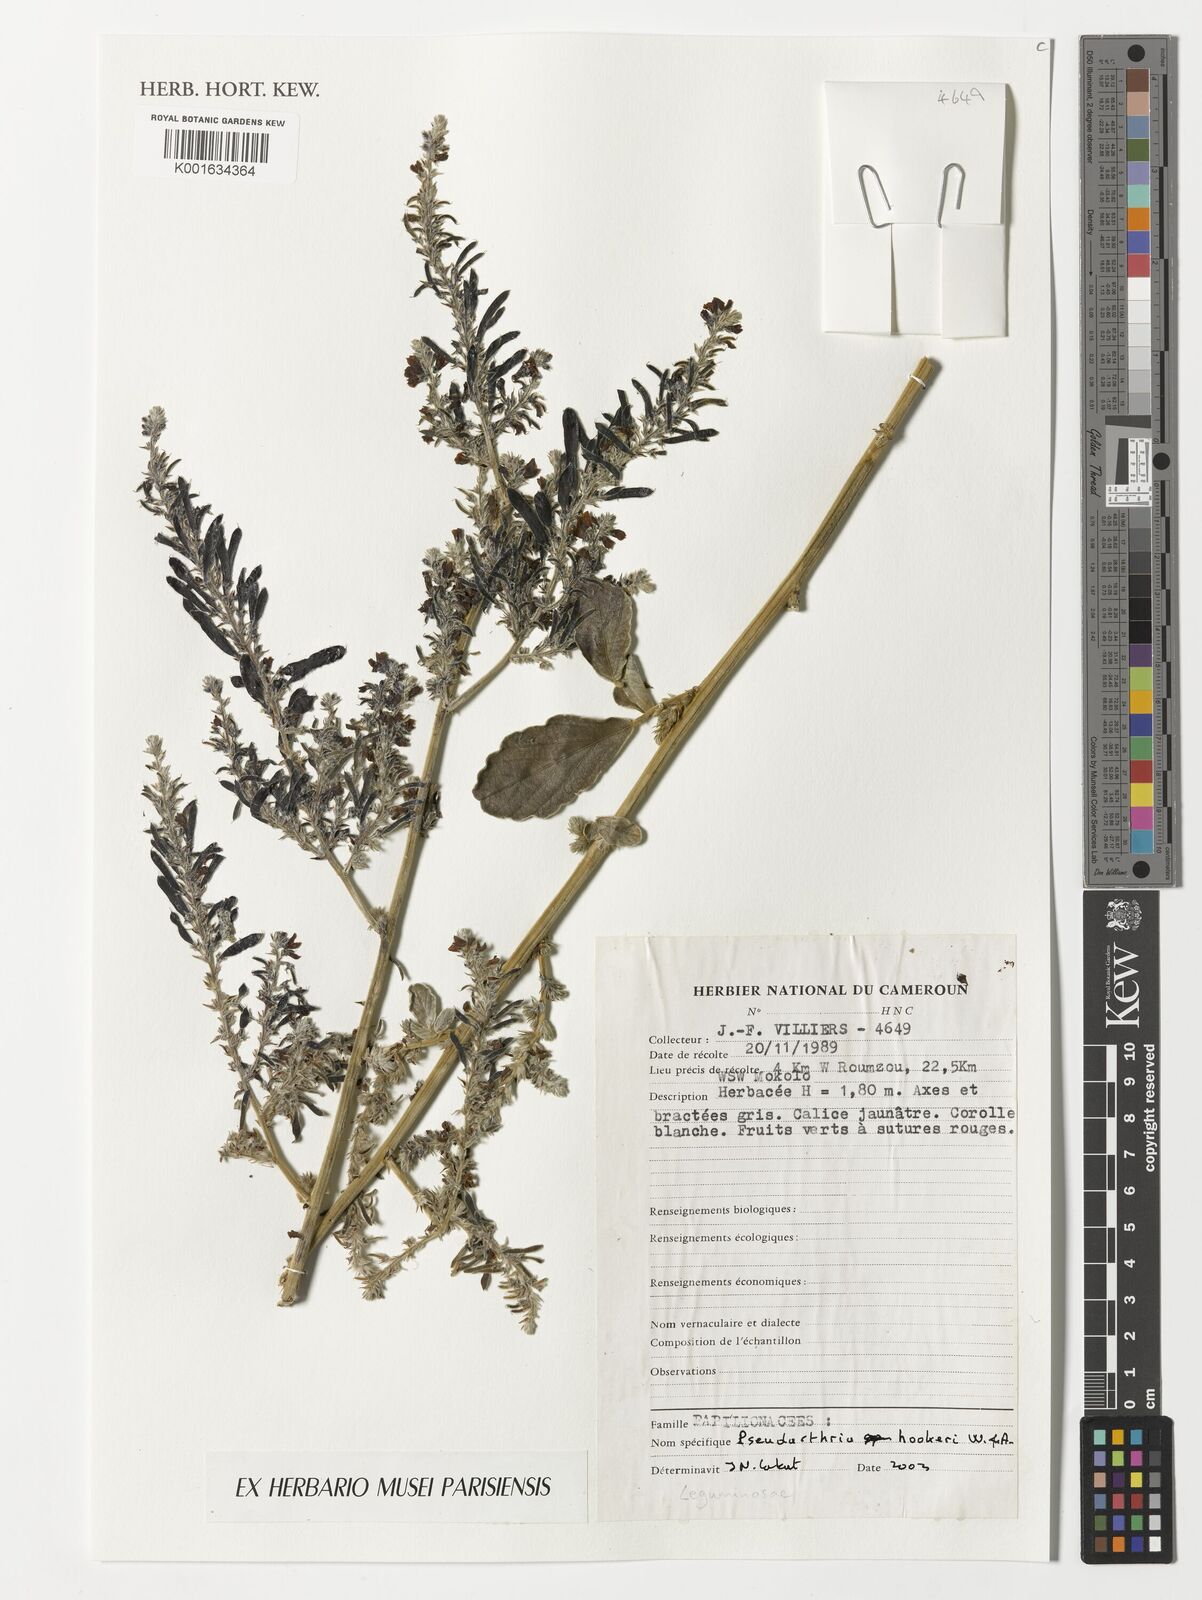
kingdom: Plantae
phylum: Tracheophyta
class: Magnoliopsida
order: Fabales
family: Fabaceae
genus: Pseudarthria
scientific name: Pseudarthria hookeri
